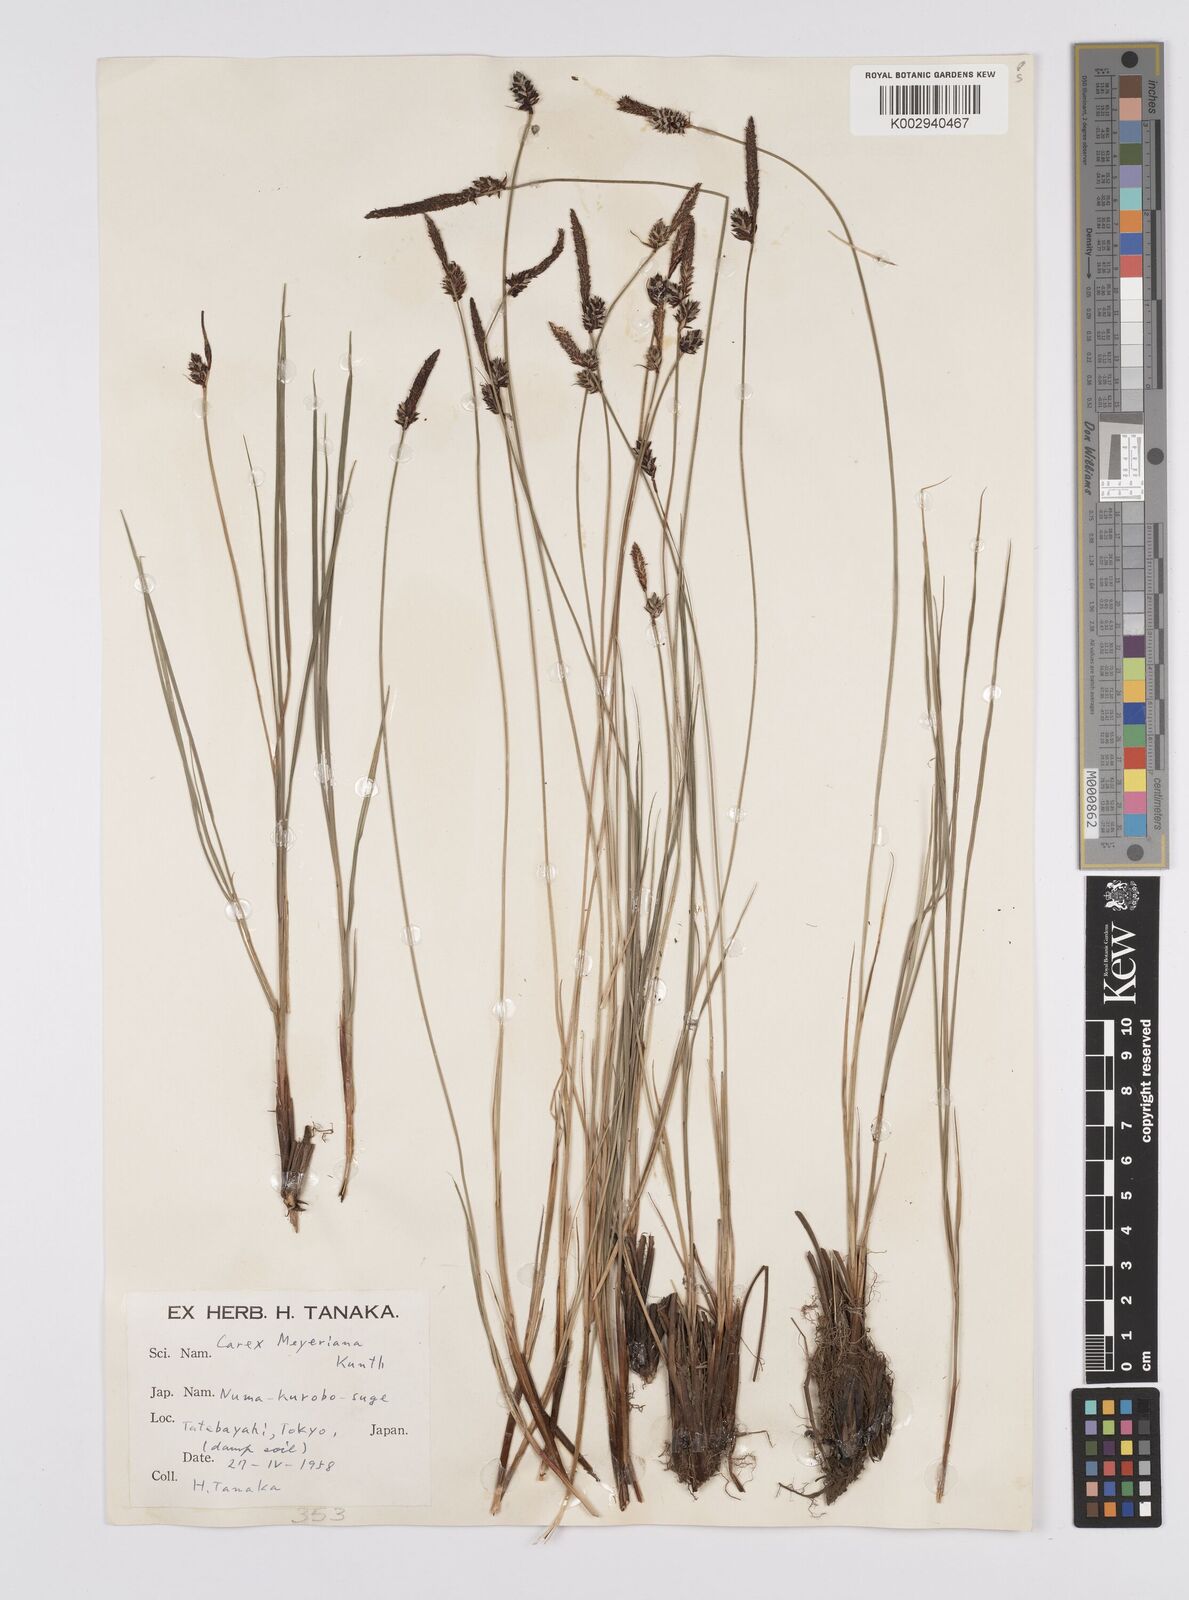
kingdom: Plantae
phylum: Tracheophyta
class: Liliopsida
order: Poales
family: Cyperaceae
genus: Carex
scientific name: Carex meyeriana
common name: Wula sedge
